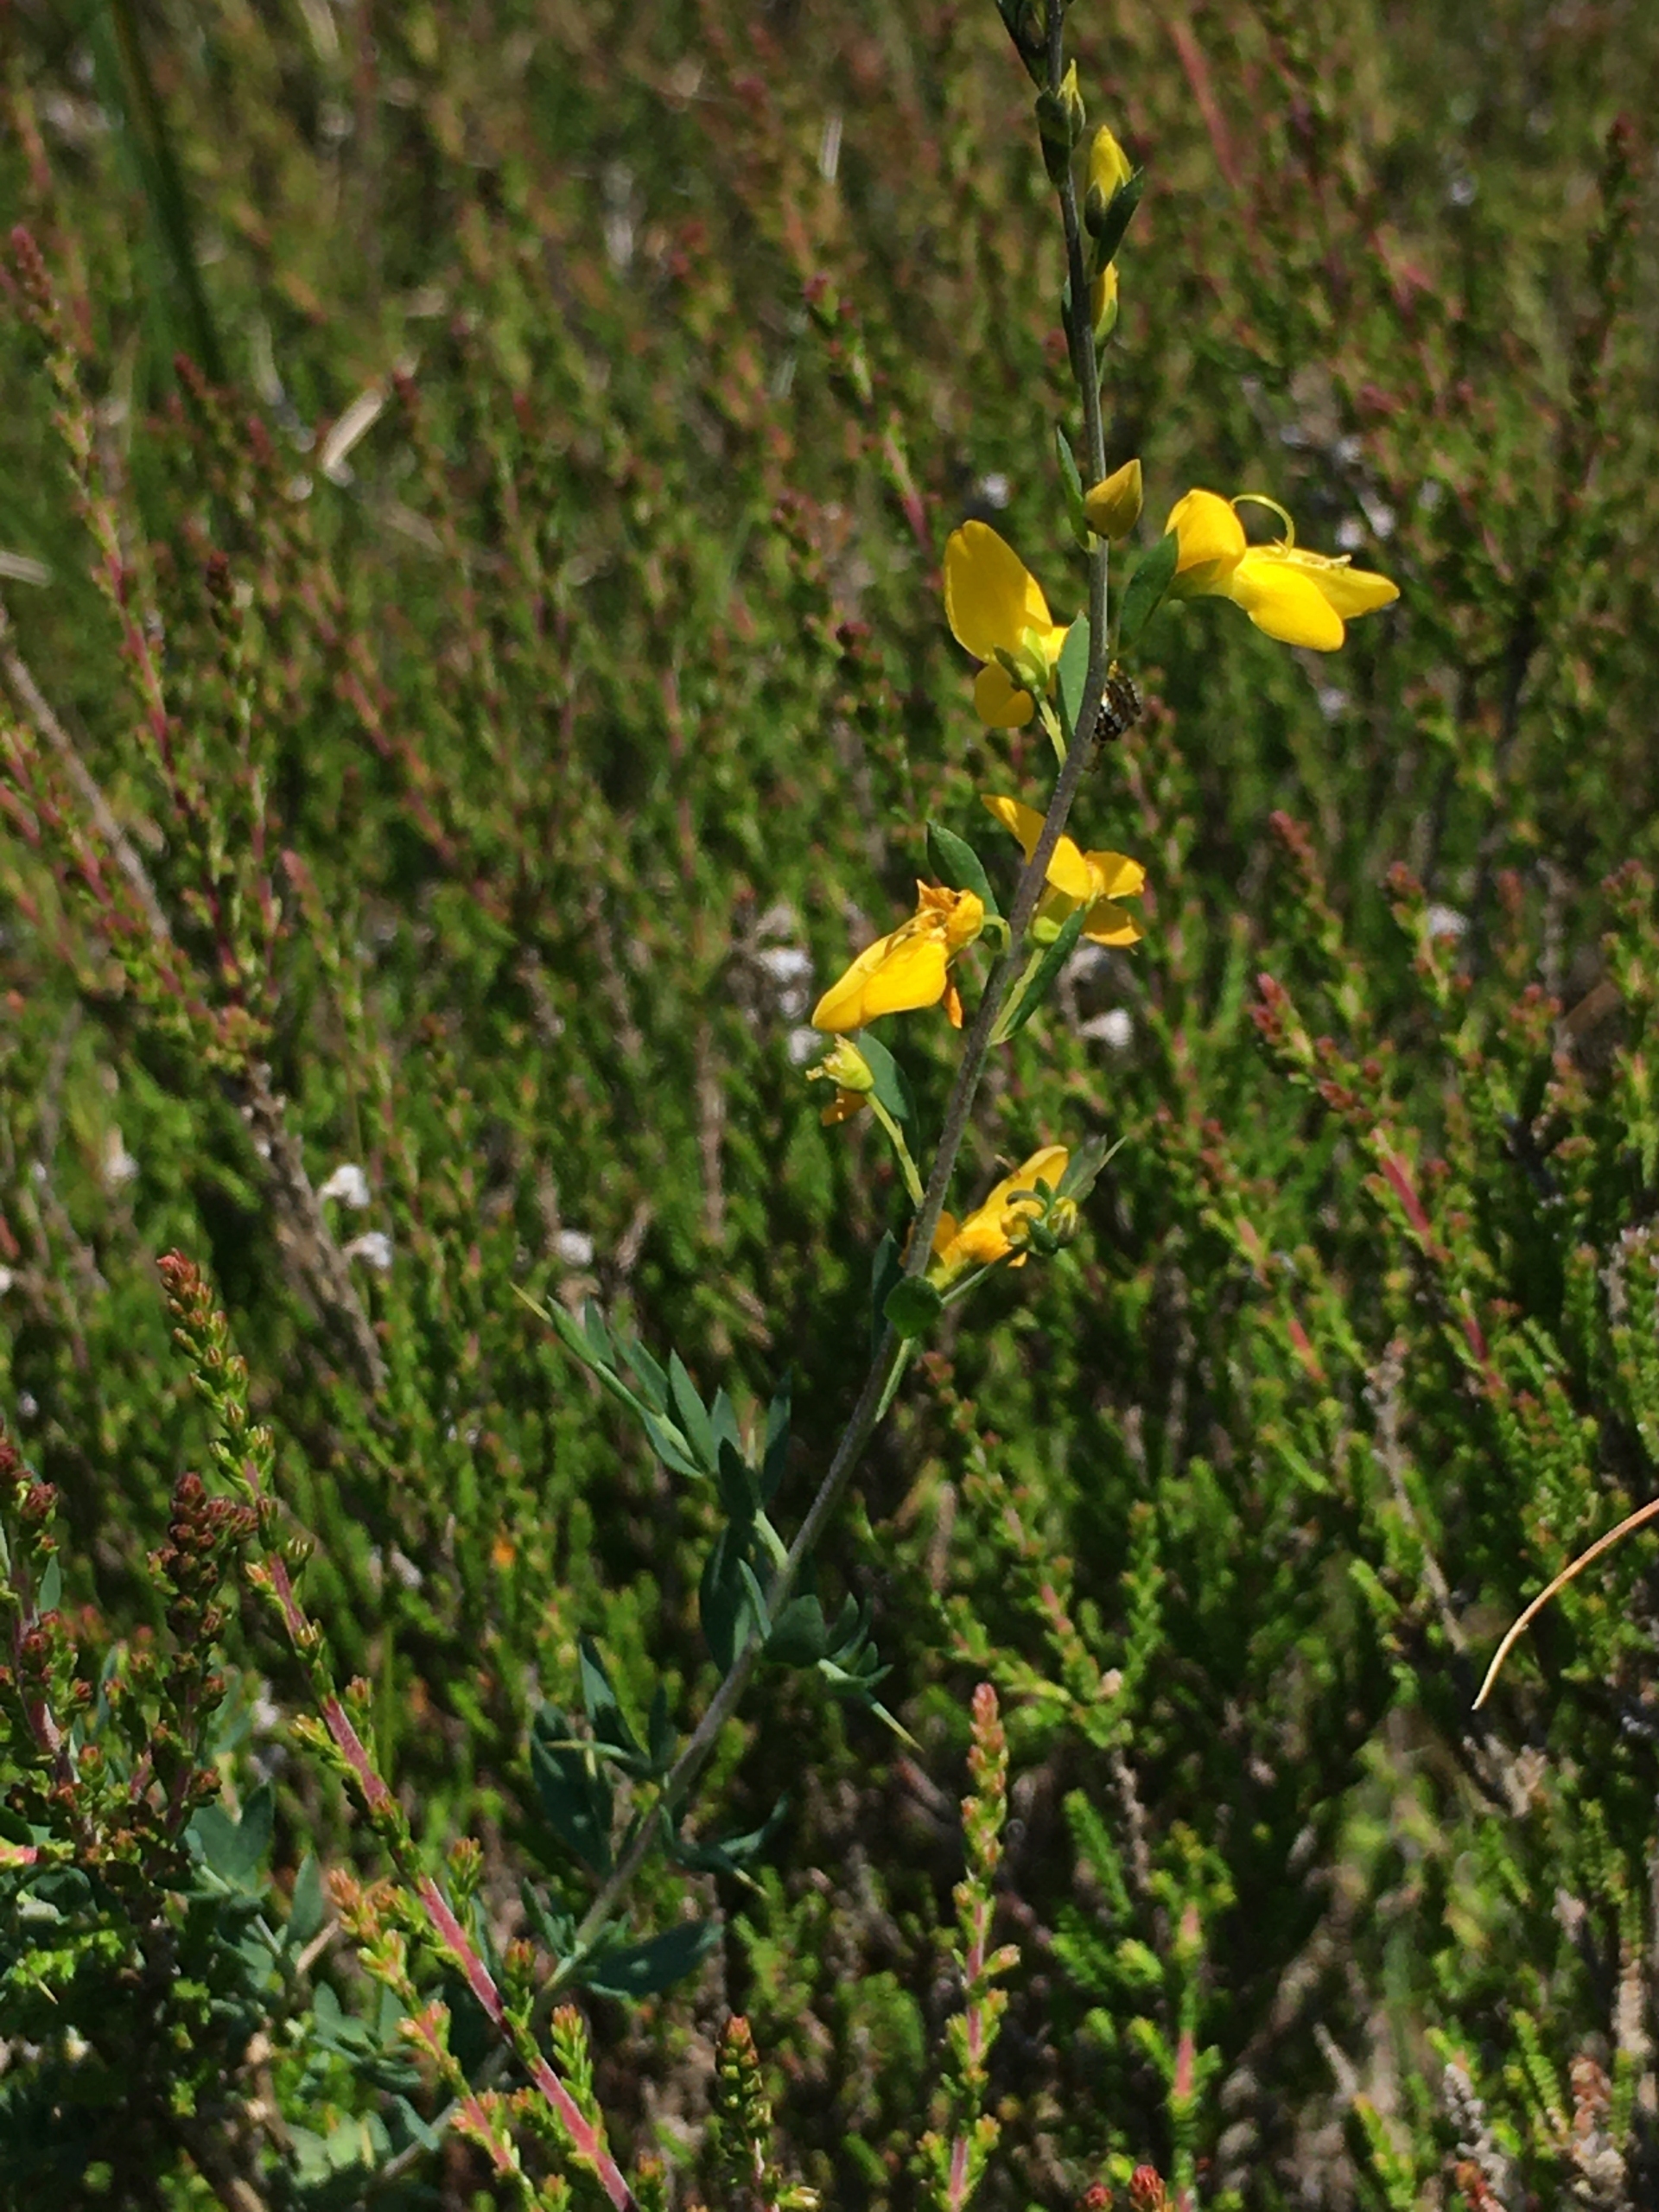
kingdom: Plantae
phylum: Tracheophyta
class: Magnoliopsida
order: Fabales
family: Fabaceae
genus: Genista
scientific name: Genista anglica
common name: Engelsk visse
